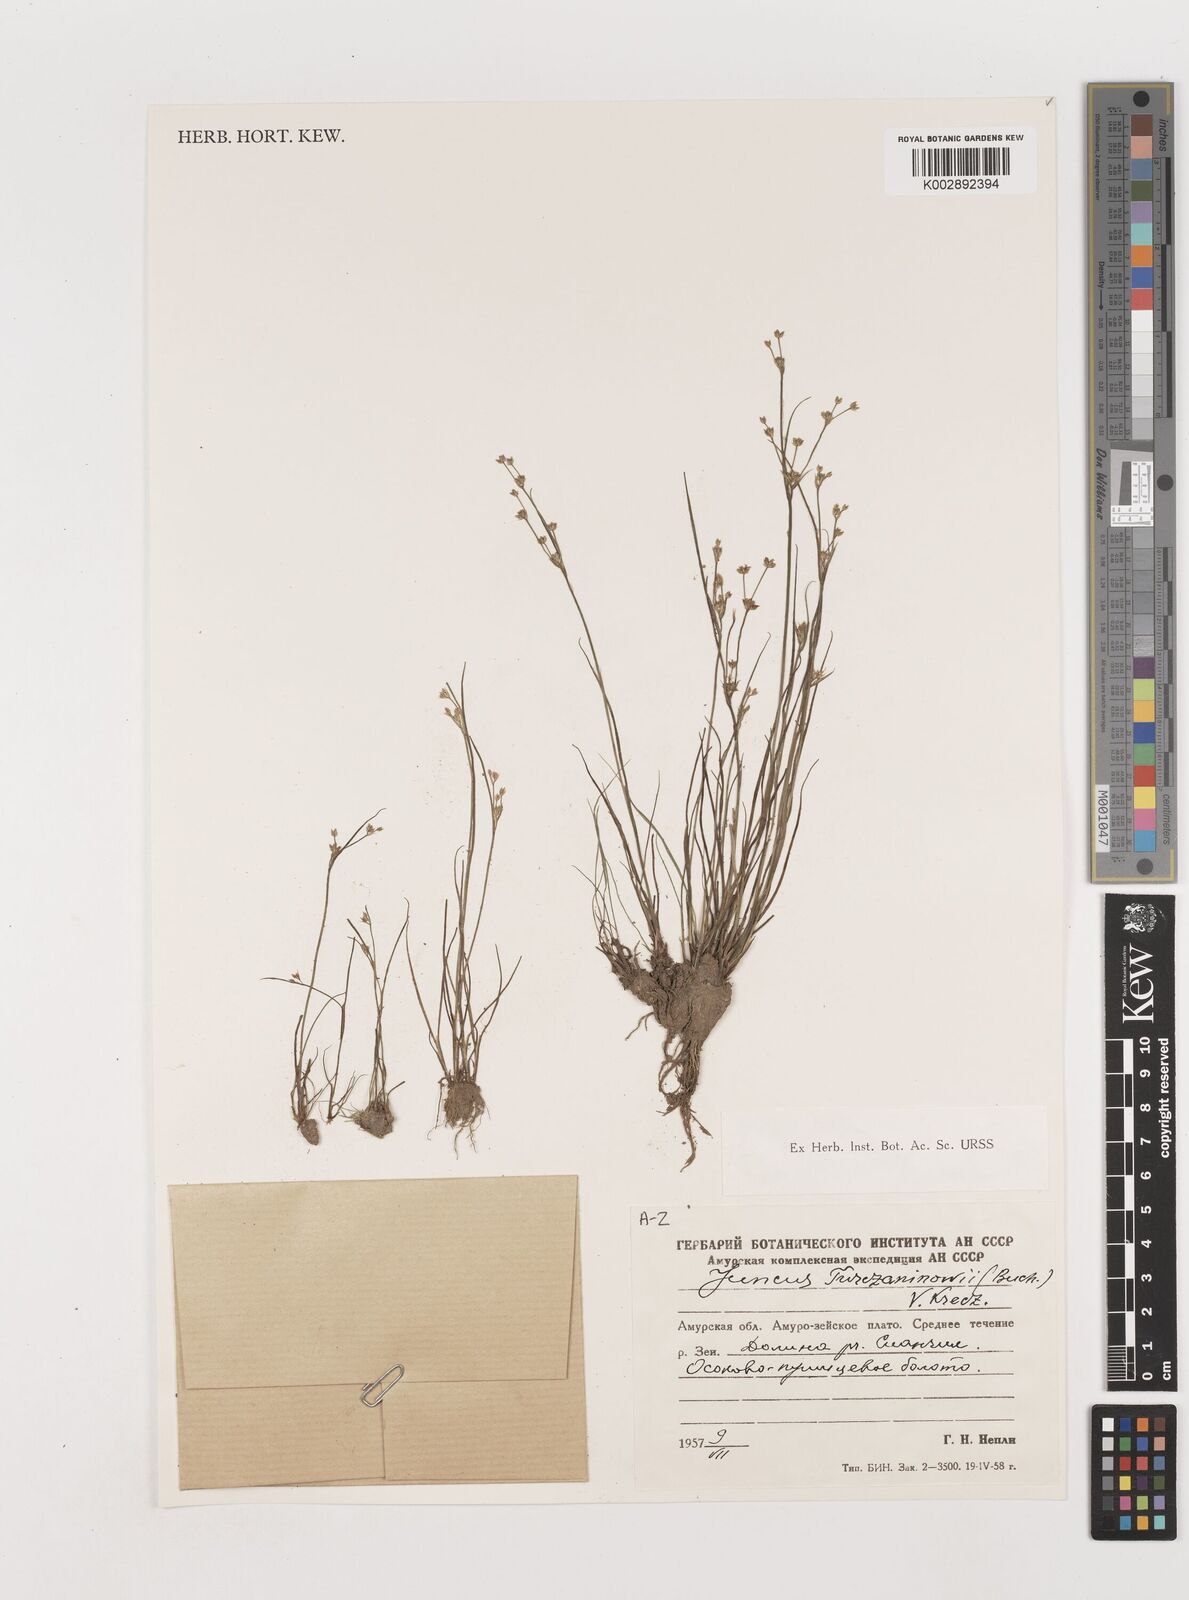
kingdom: Plantae
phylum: Tracheophyta
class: Liliopsida
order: Poales
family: Juncaceae
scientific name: Juncaceae
